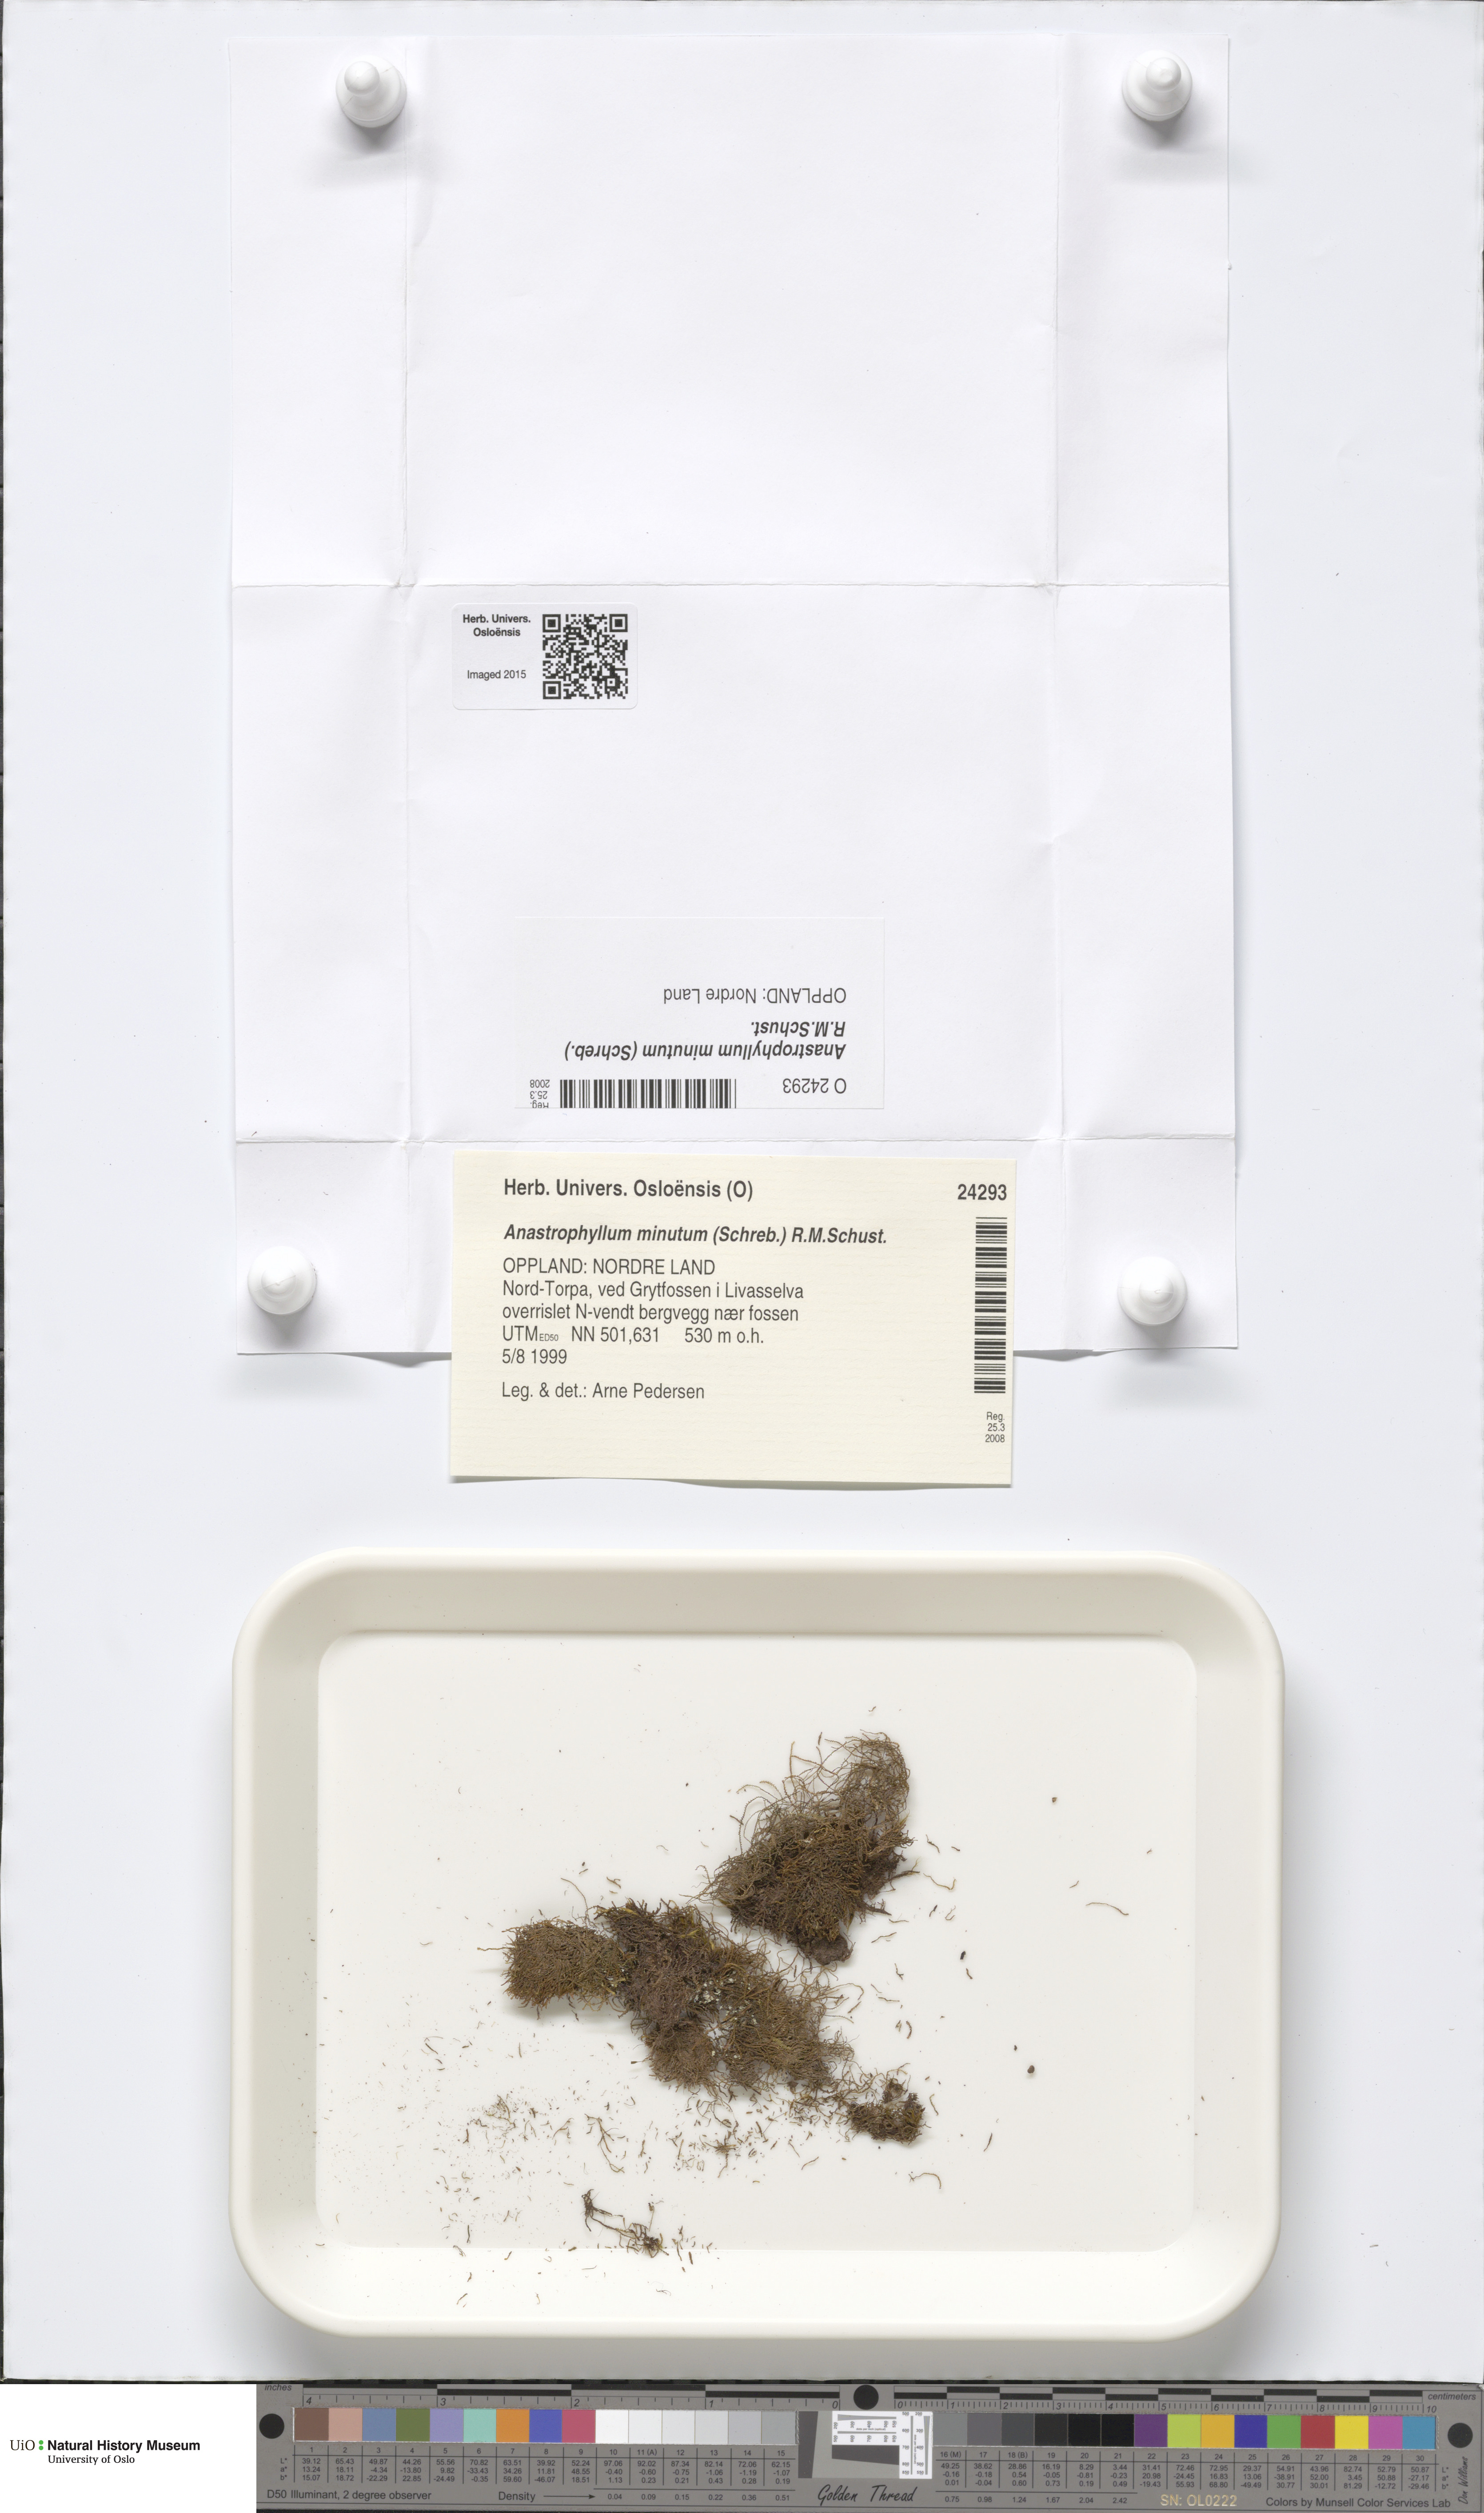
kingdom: Plantae
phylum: Marchantiophyta
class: Jungermanniopsida
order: Jungermanniales
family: Anastrophyllaceae
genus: Sphenolobus
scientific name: Sphenolobus minutus
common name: Comb notchwort
